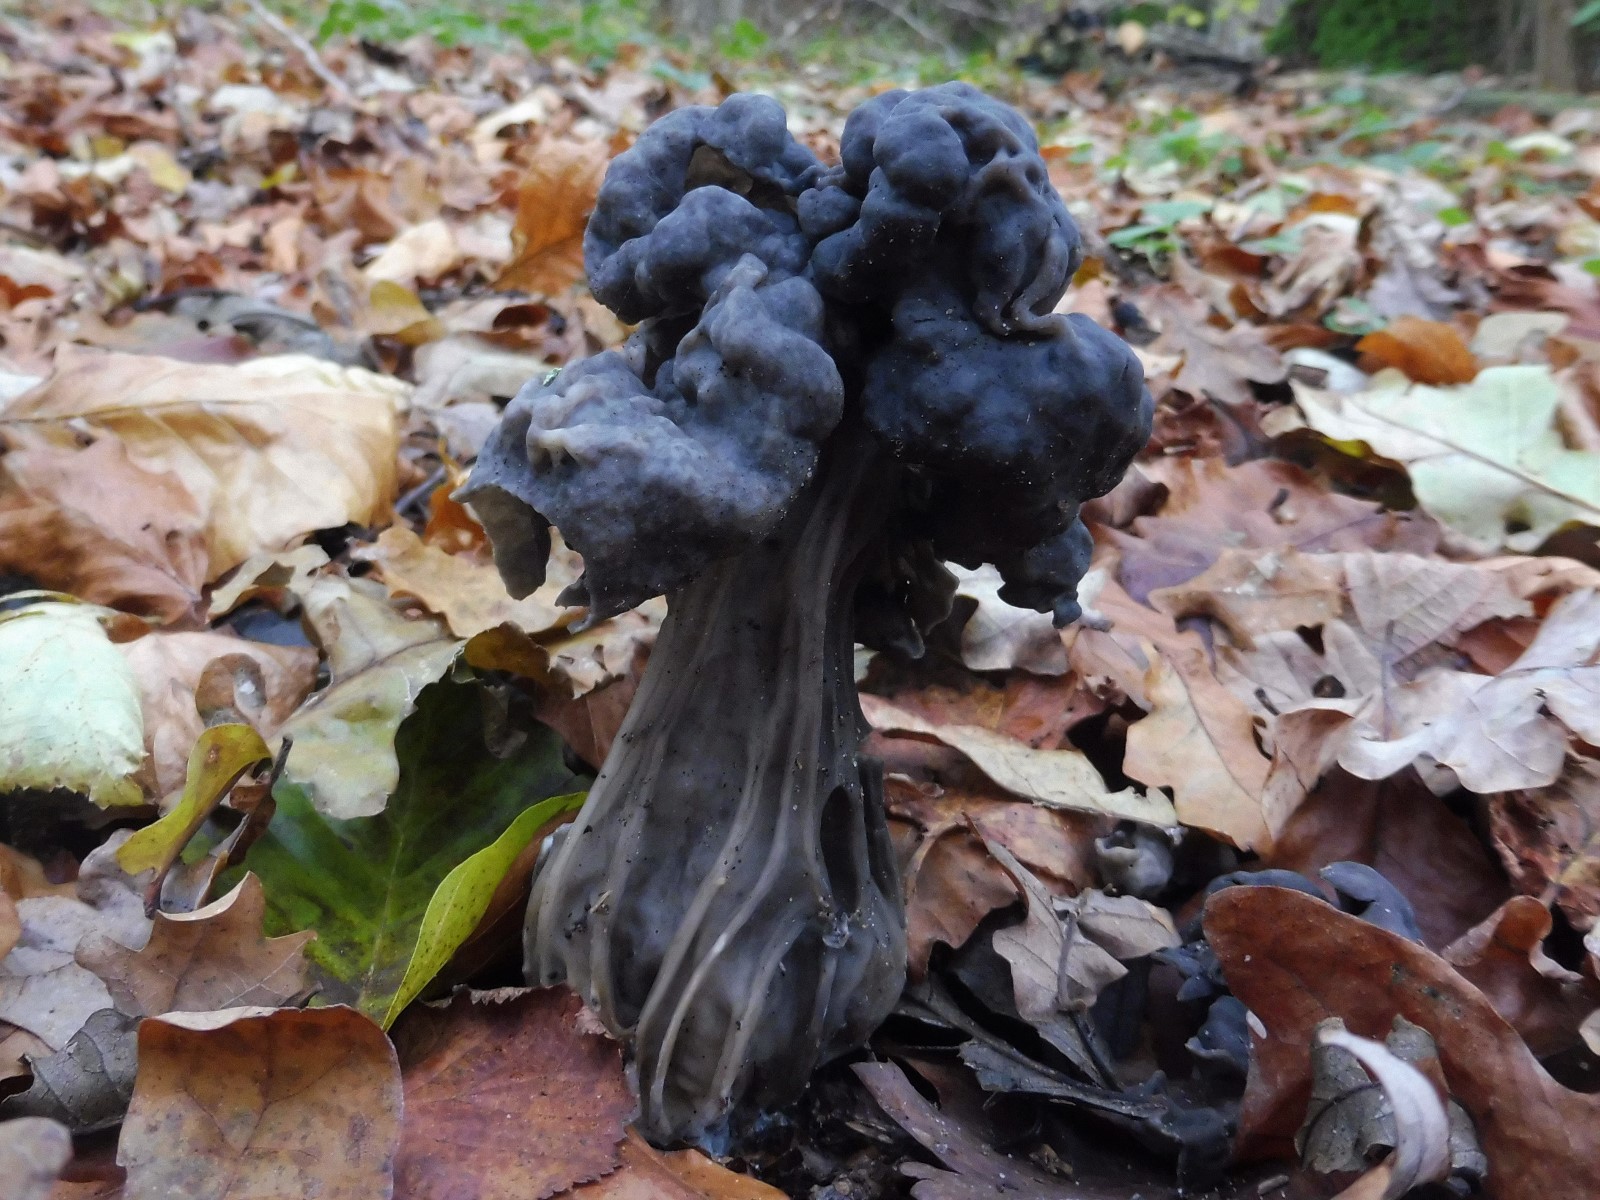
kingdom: Fungi
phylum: Ascomycota
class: Pezizomycetes
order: Pezizales
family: Helvellaceae
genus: Helvella
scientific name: Helvella lacunosa
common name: grubet foldhat
